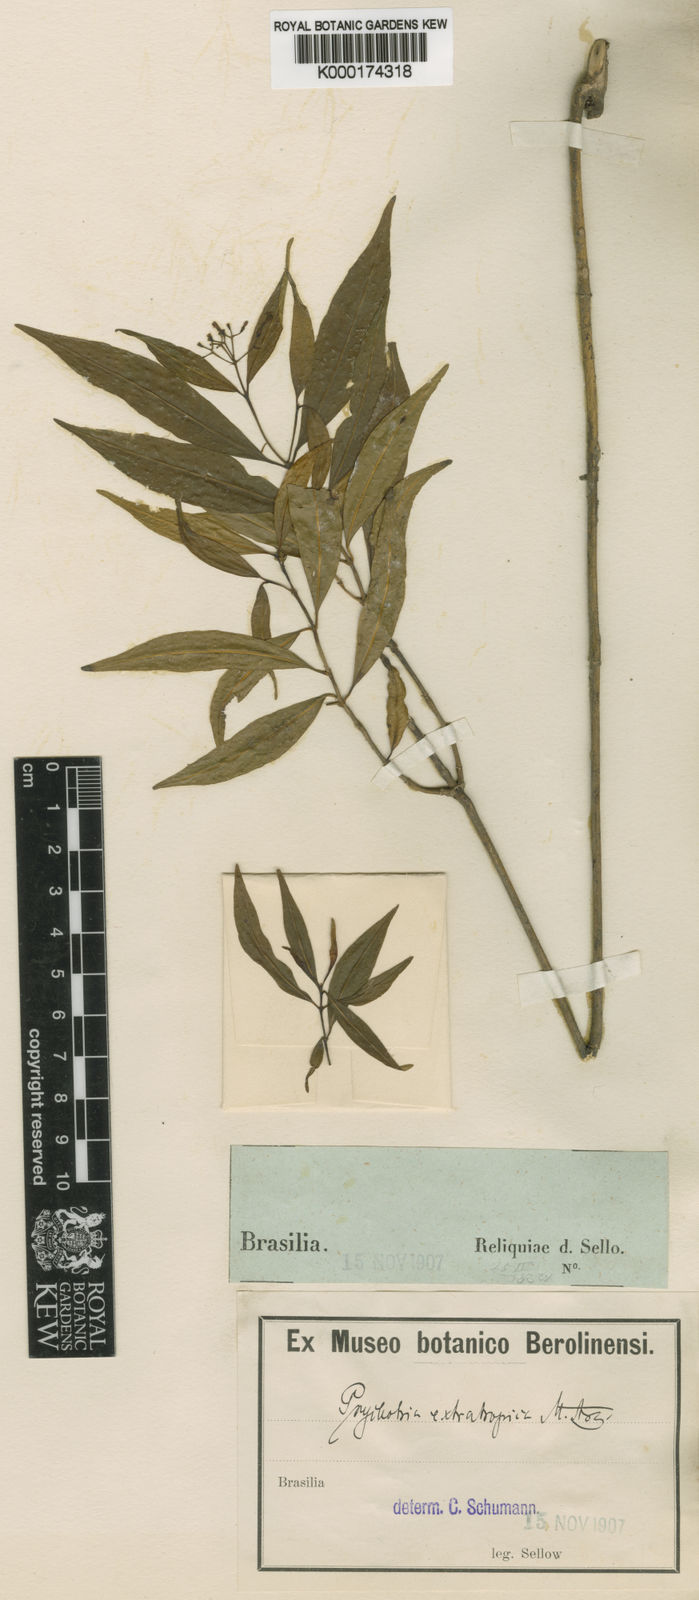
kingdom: Plantae
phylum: Tracheophyta
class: Magnoliopsida
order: Gentianales
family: Rubiaceae
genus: Psychotria
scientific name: Psychotria leiocarpa
